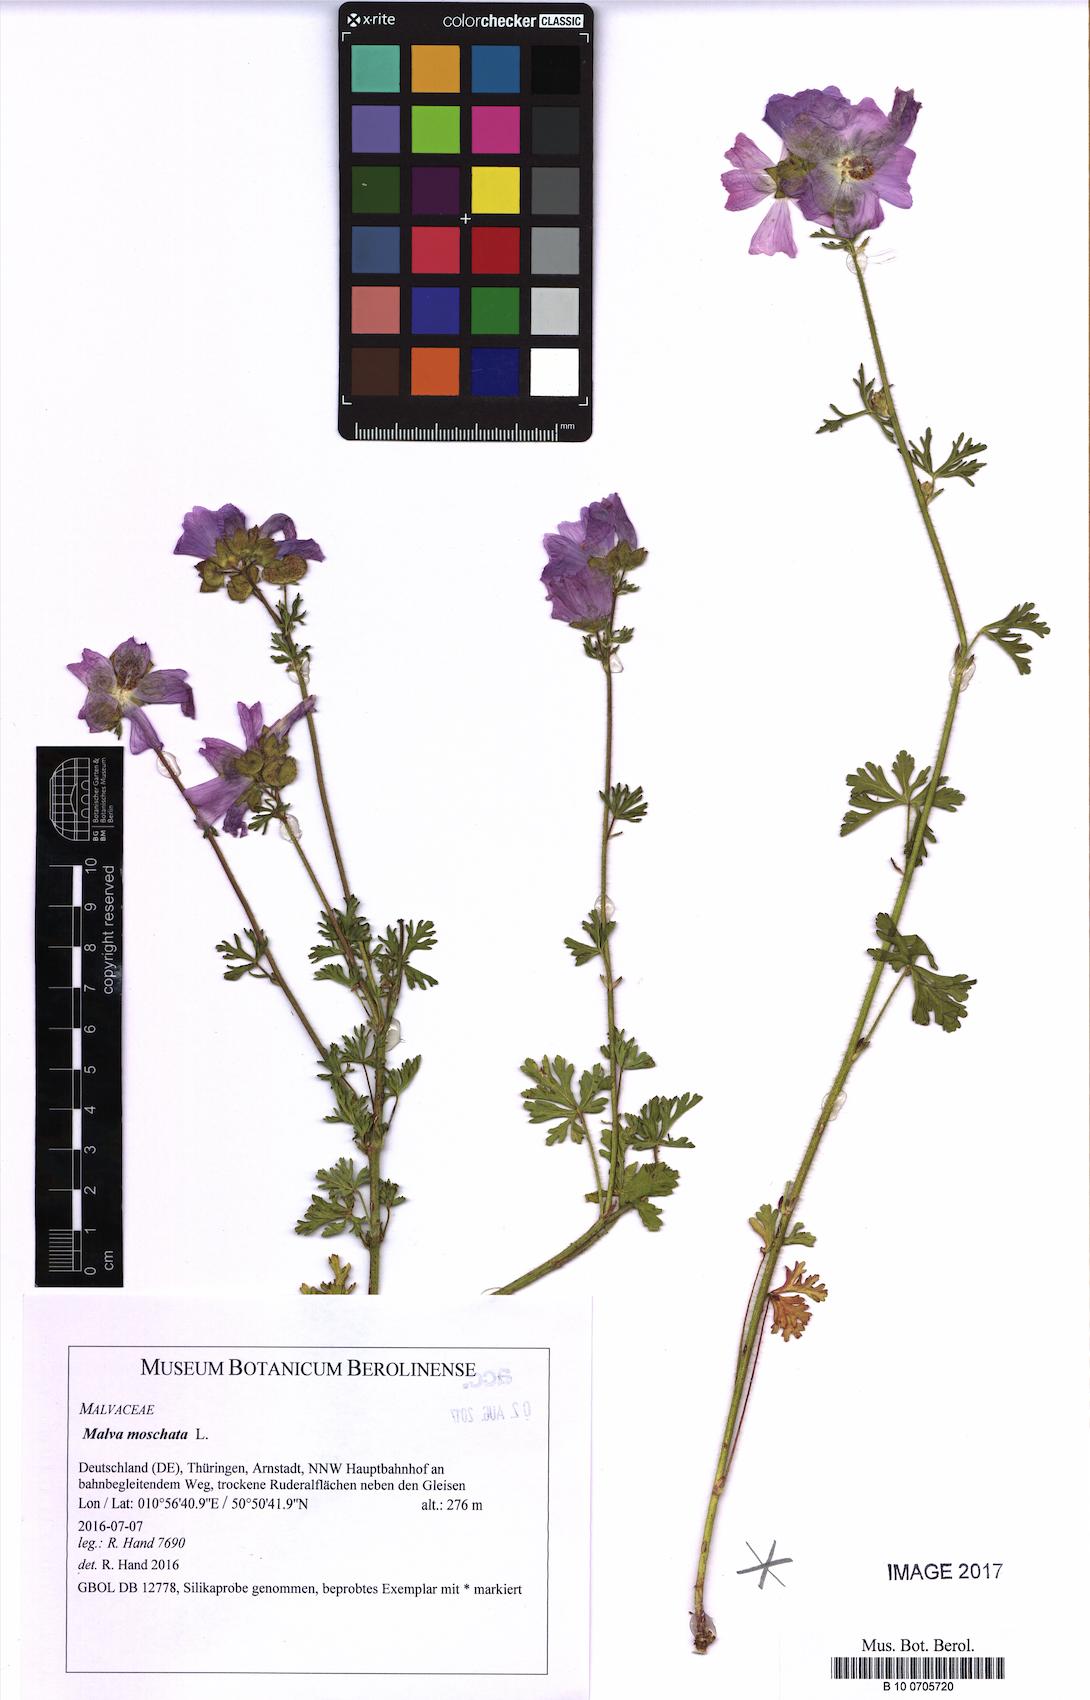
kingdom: Plantae
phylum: Tracheophyta
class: Magnoliopsida
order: Malvales
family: Malvaceae
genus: Malva
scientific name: Malva moschata
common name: Musk mallow
